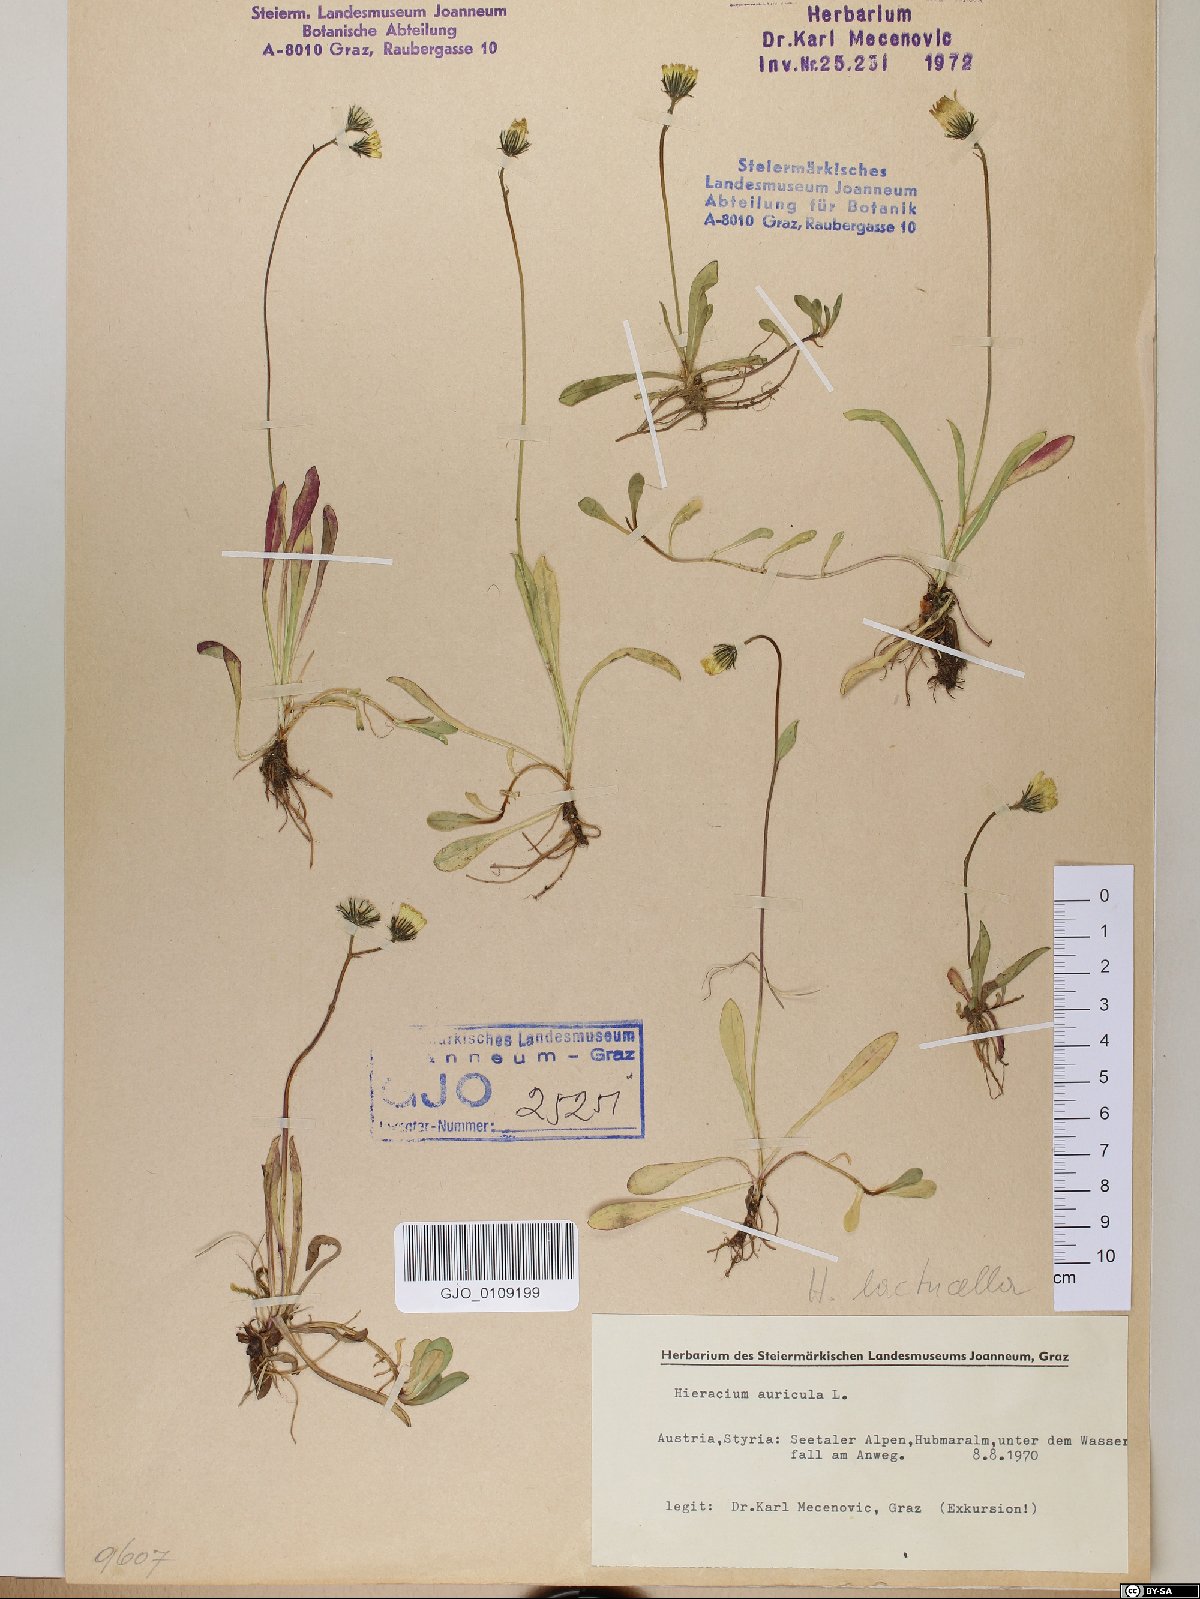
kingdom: Plantae
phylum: Tracheophyta
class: Magnoliopsida
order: Asterales
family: Asteraceae
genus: Pilosella
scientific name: Pilosella floribunda
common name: Glaucous hawkweed
